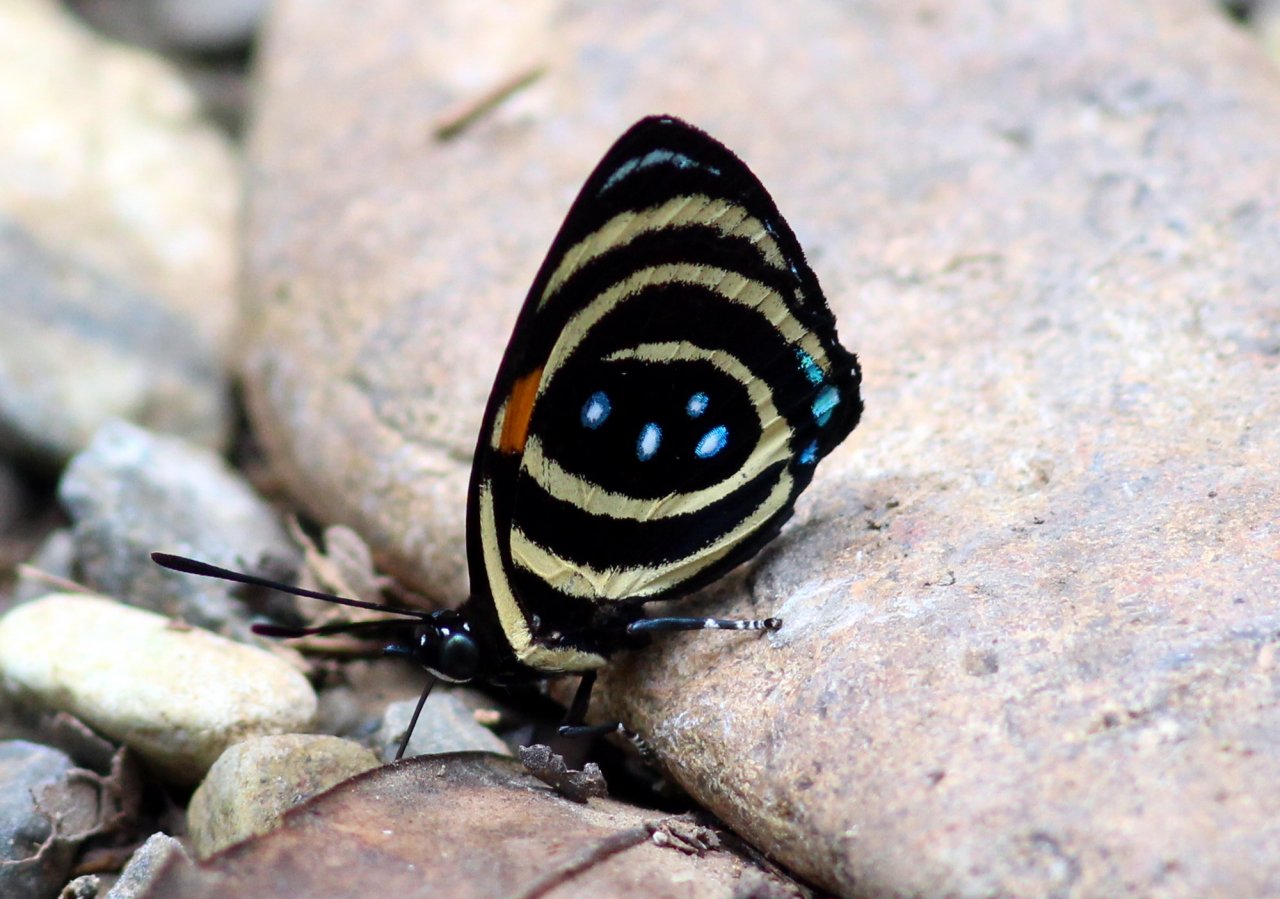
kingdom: Animalia
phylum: Arthropoda
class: Insecta
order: Lepidoptera
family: Nymphalidae
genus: Catagramma
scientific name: Catagramma
